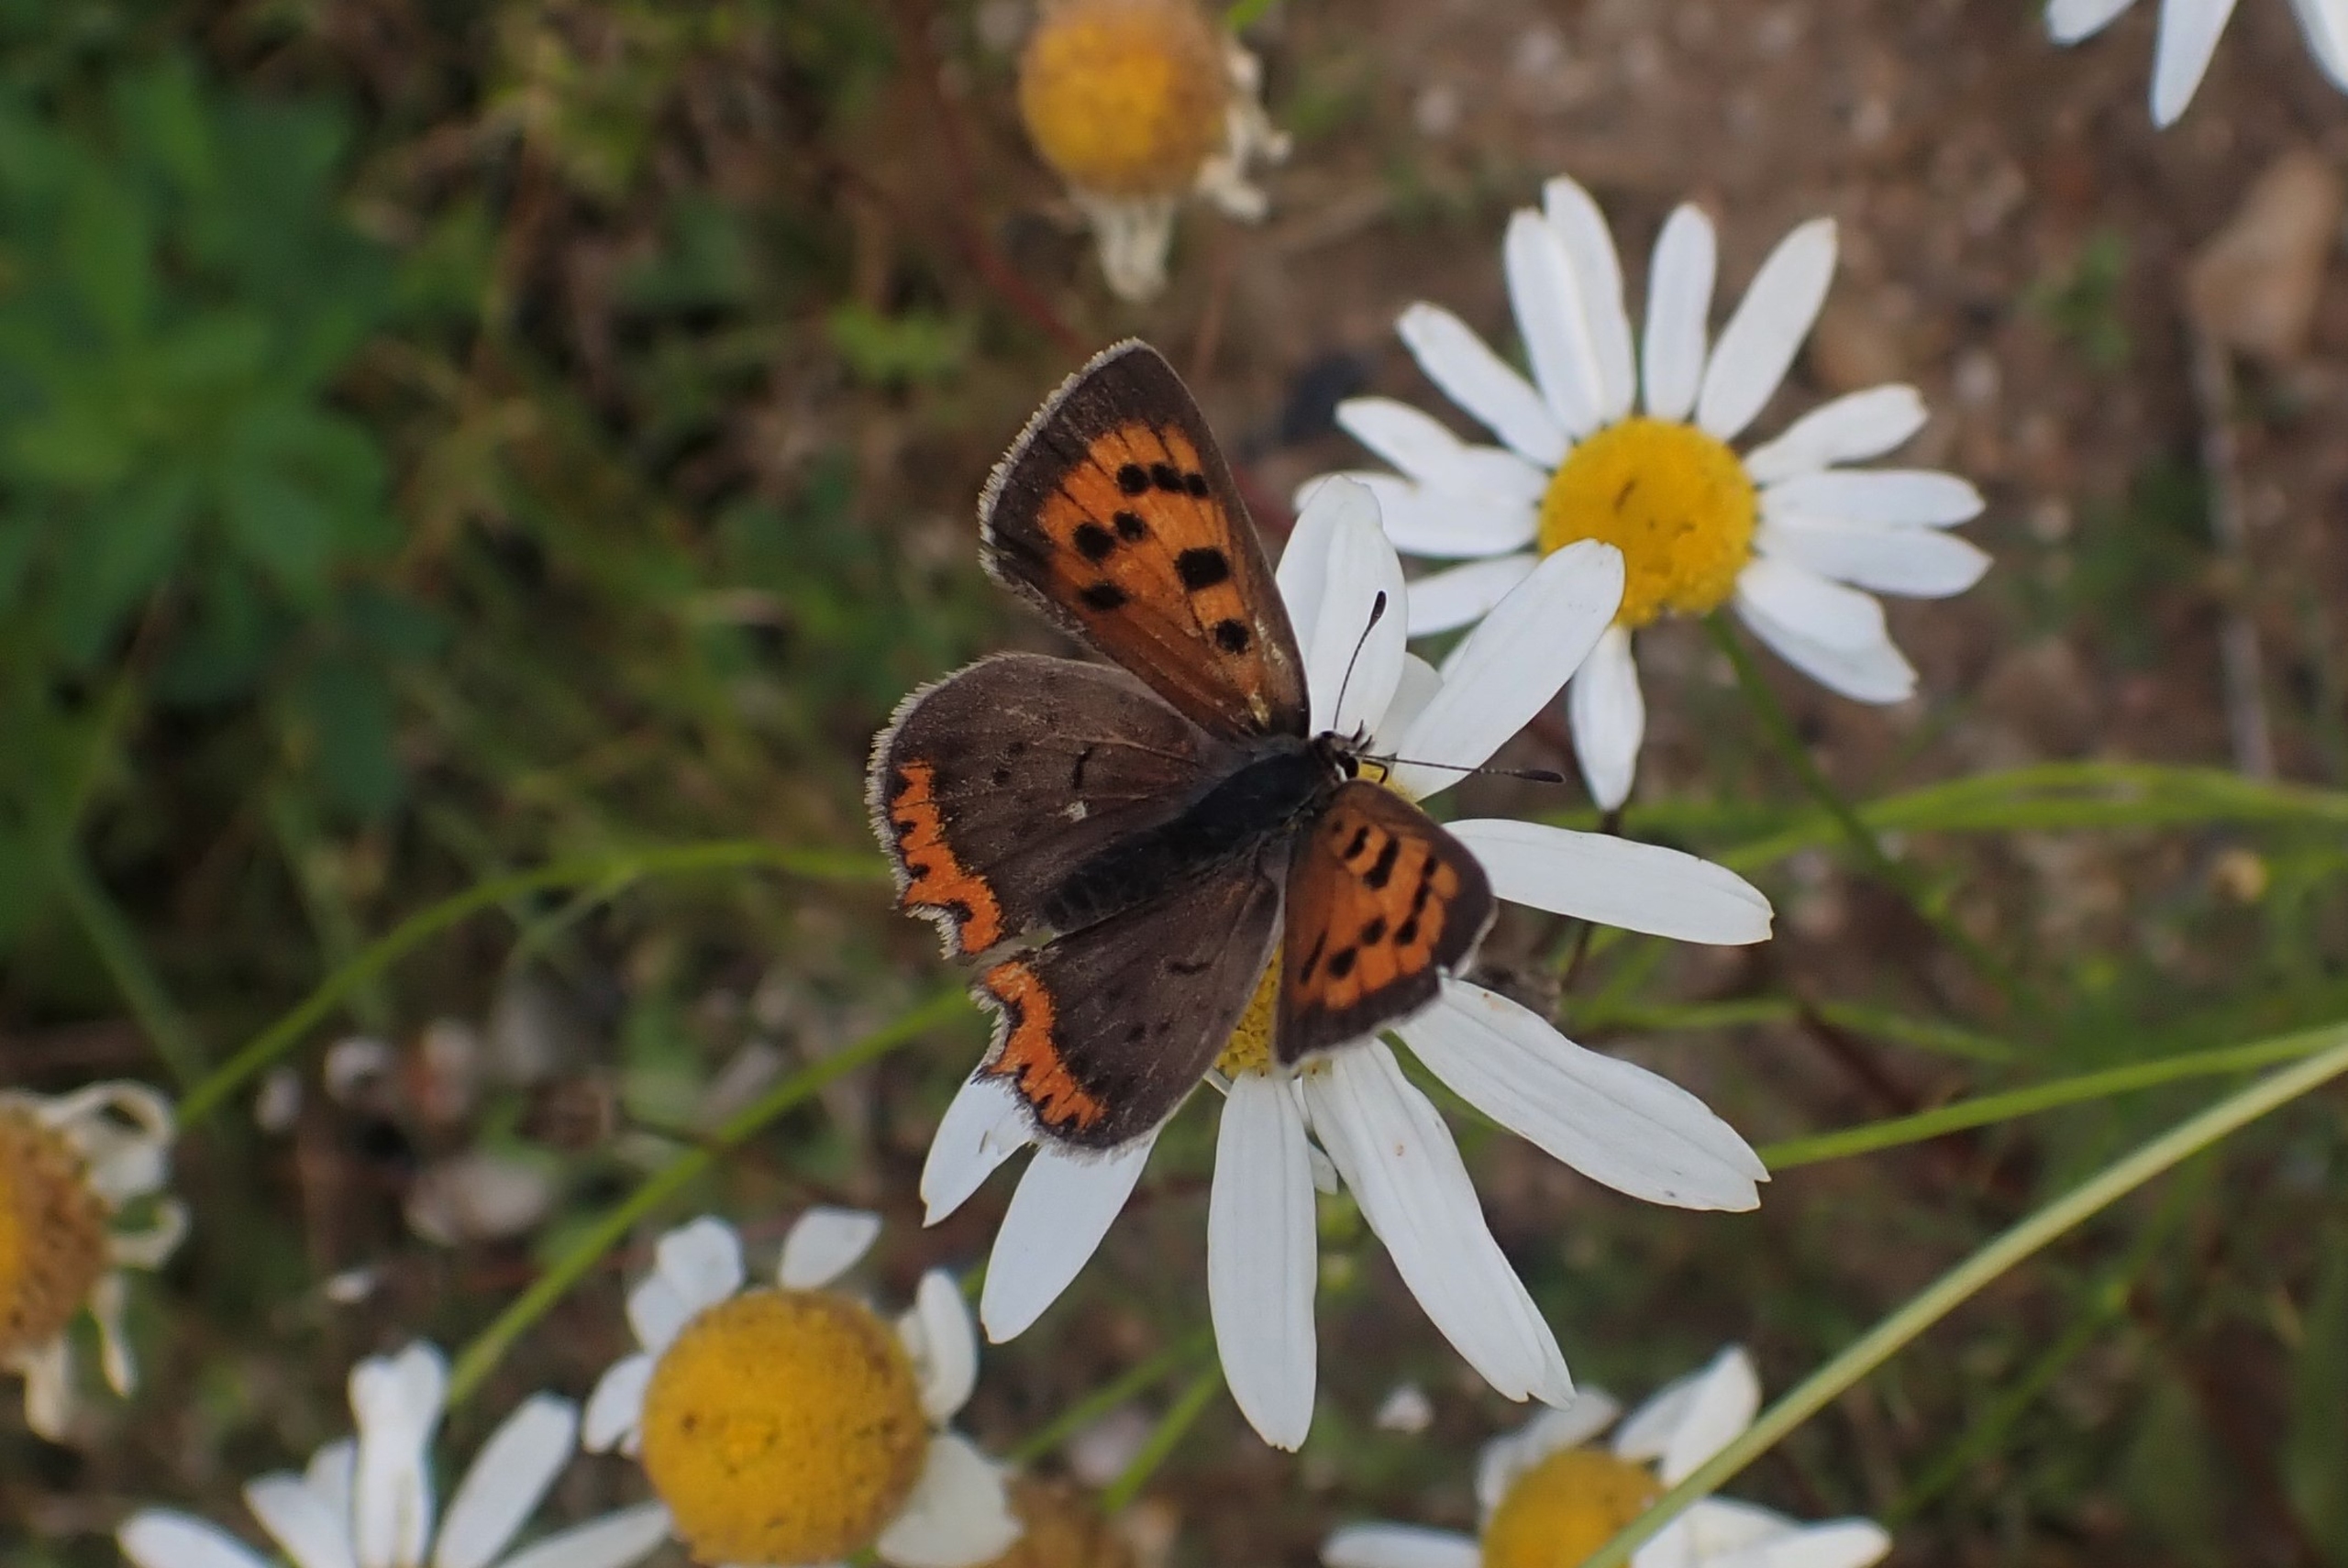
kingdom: Animalia
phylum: Arthropoda
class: Insecta
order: Lepidoptera
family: Lycaenidae
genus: Lycaena
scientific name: Lycaena phlaeas
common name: Lille ildfugl
